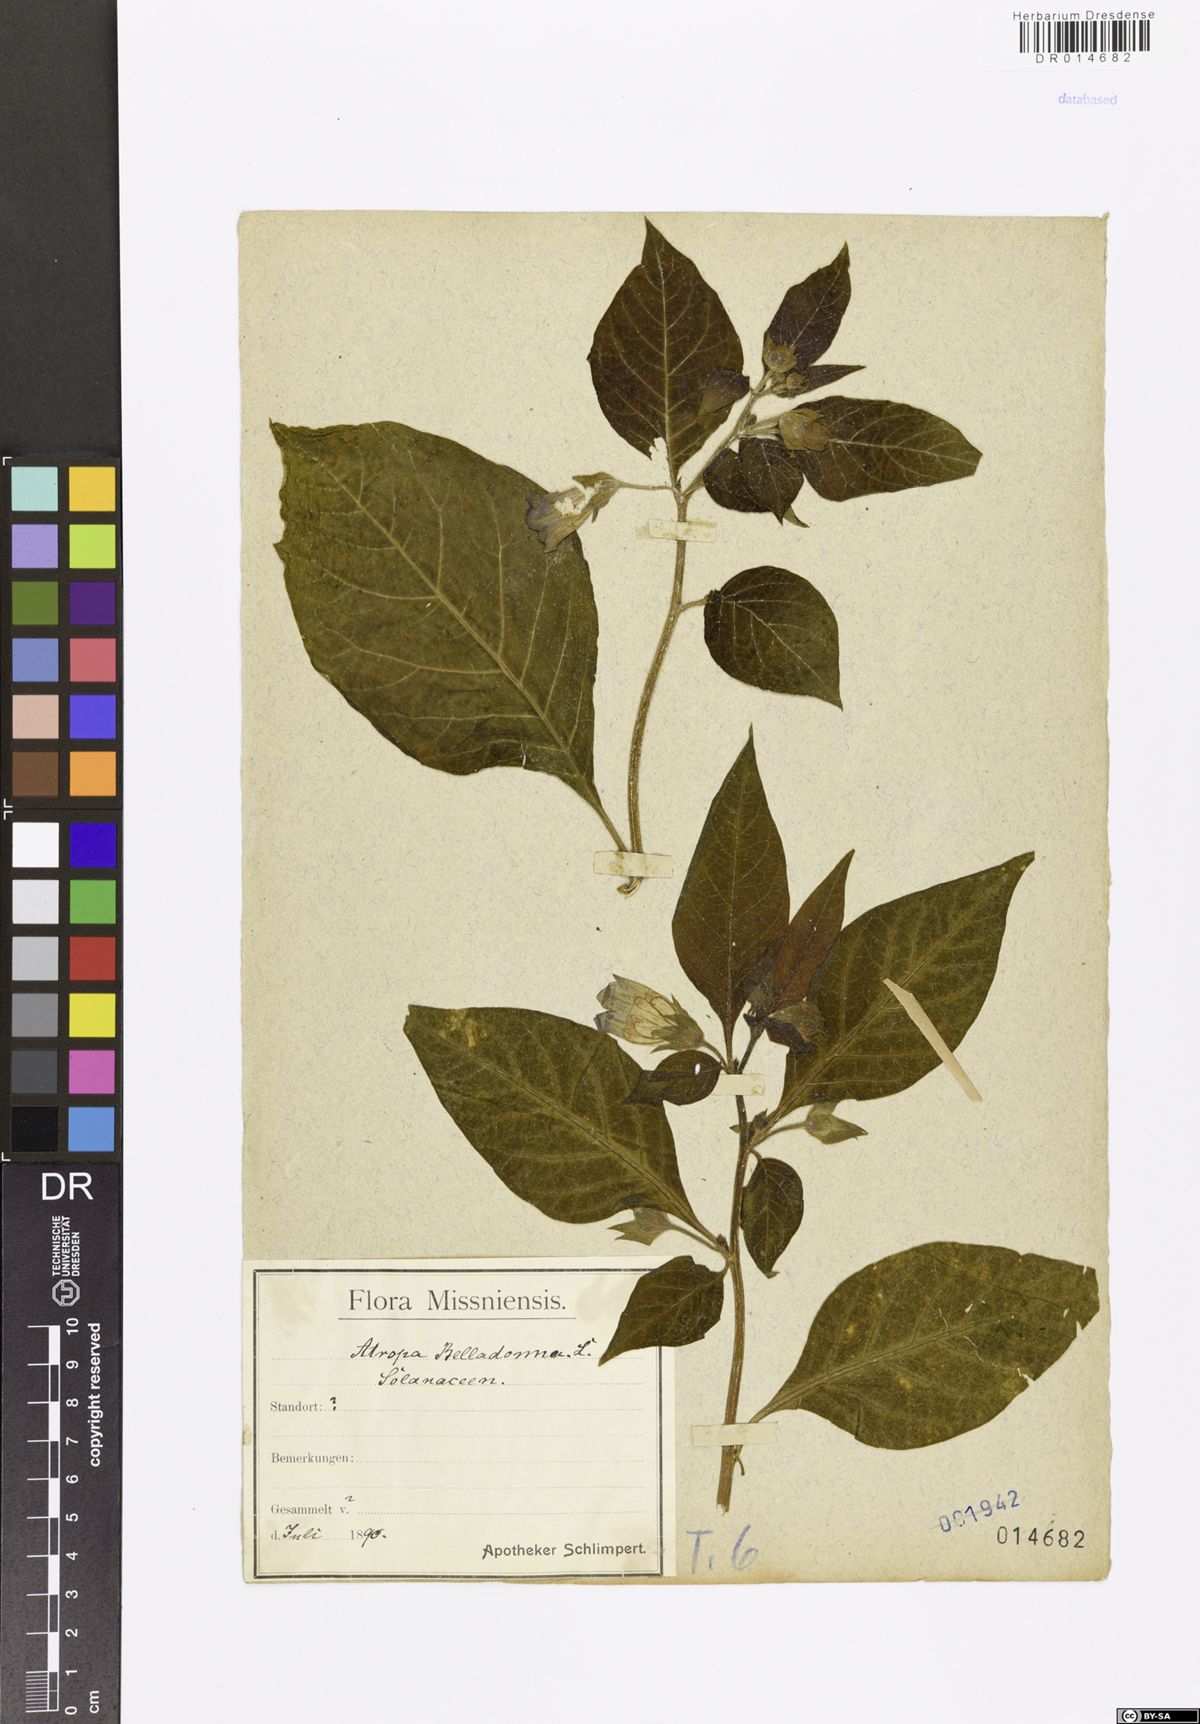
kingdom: Plantae
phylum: Tracheophyta
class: Magnoliopsida
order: Solanales
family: Solanaceae
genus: Atropa
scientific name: Atropa belladonna
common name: Deadly nightshade
